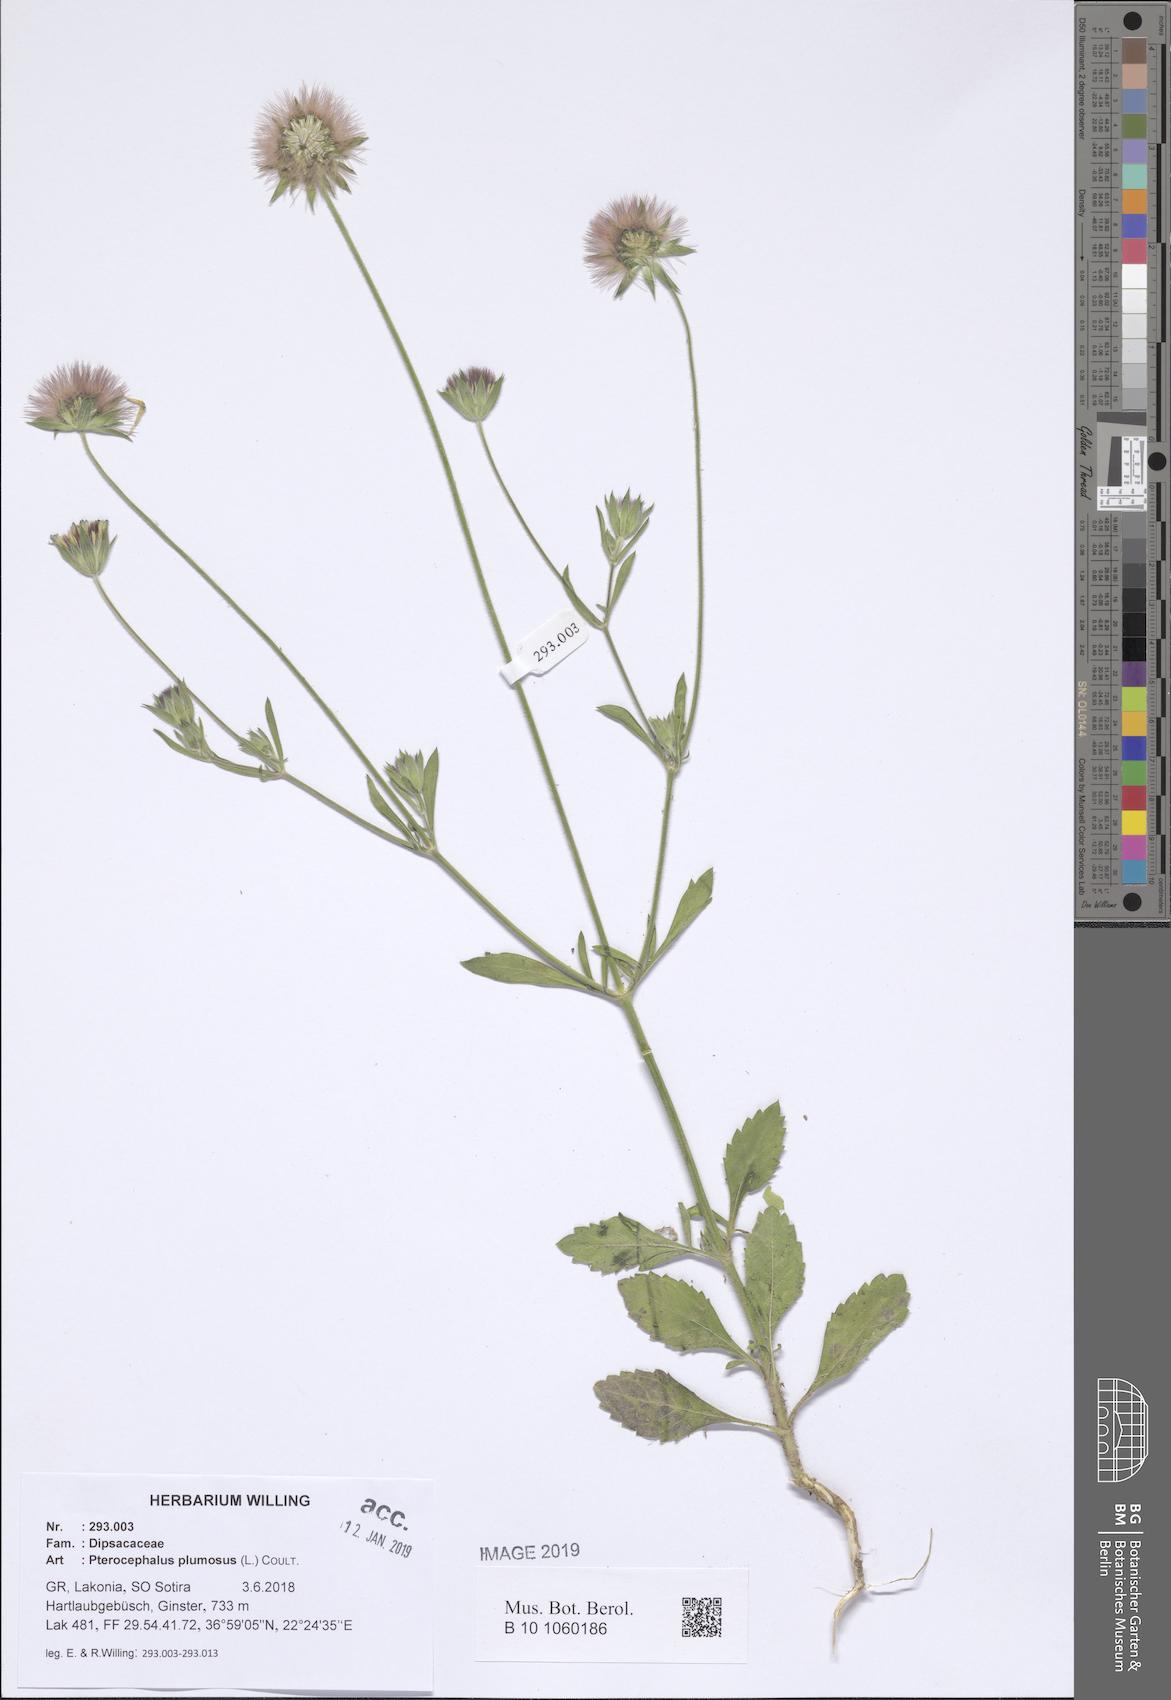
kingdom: Plantae
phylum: Tracheophyta
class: Magnoliopsida
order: Dipsacales
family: Caprifoliaceae
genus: Pterocephalus
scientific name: Pterocephalus plumosus
